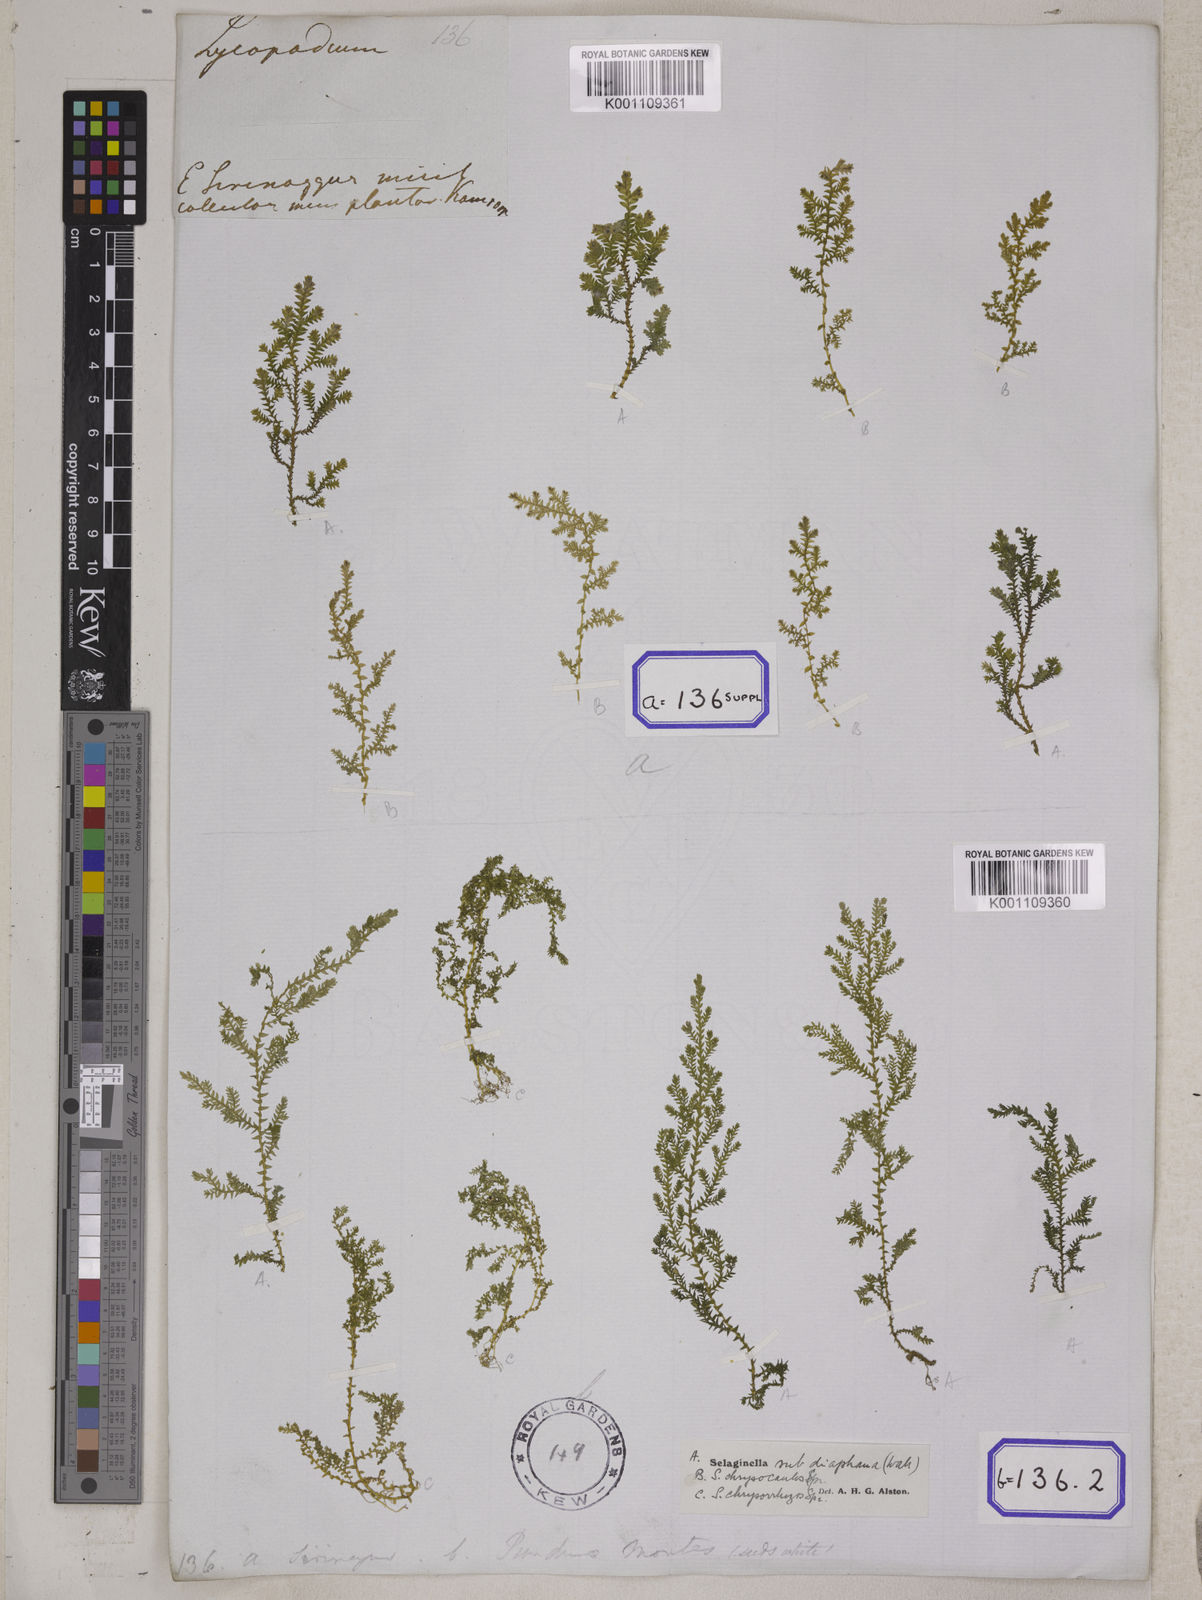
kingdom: Plantae
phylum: Tracheophyta
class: Lycopodiopsida
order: Selaginellales
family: Selaginellaceae
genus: Selaginella
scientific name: Selaginella subdiaphana
